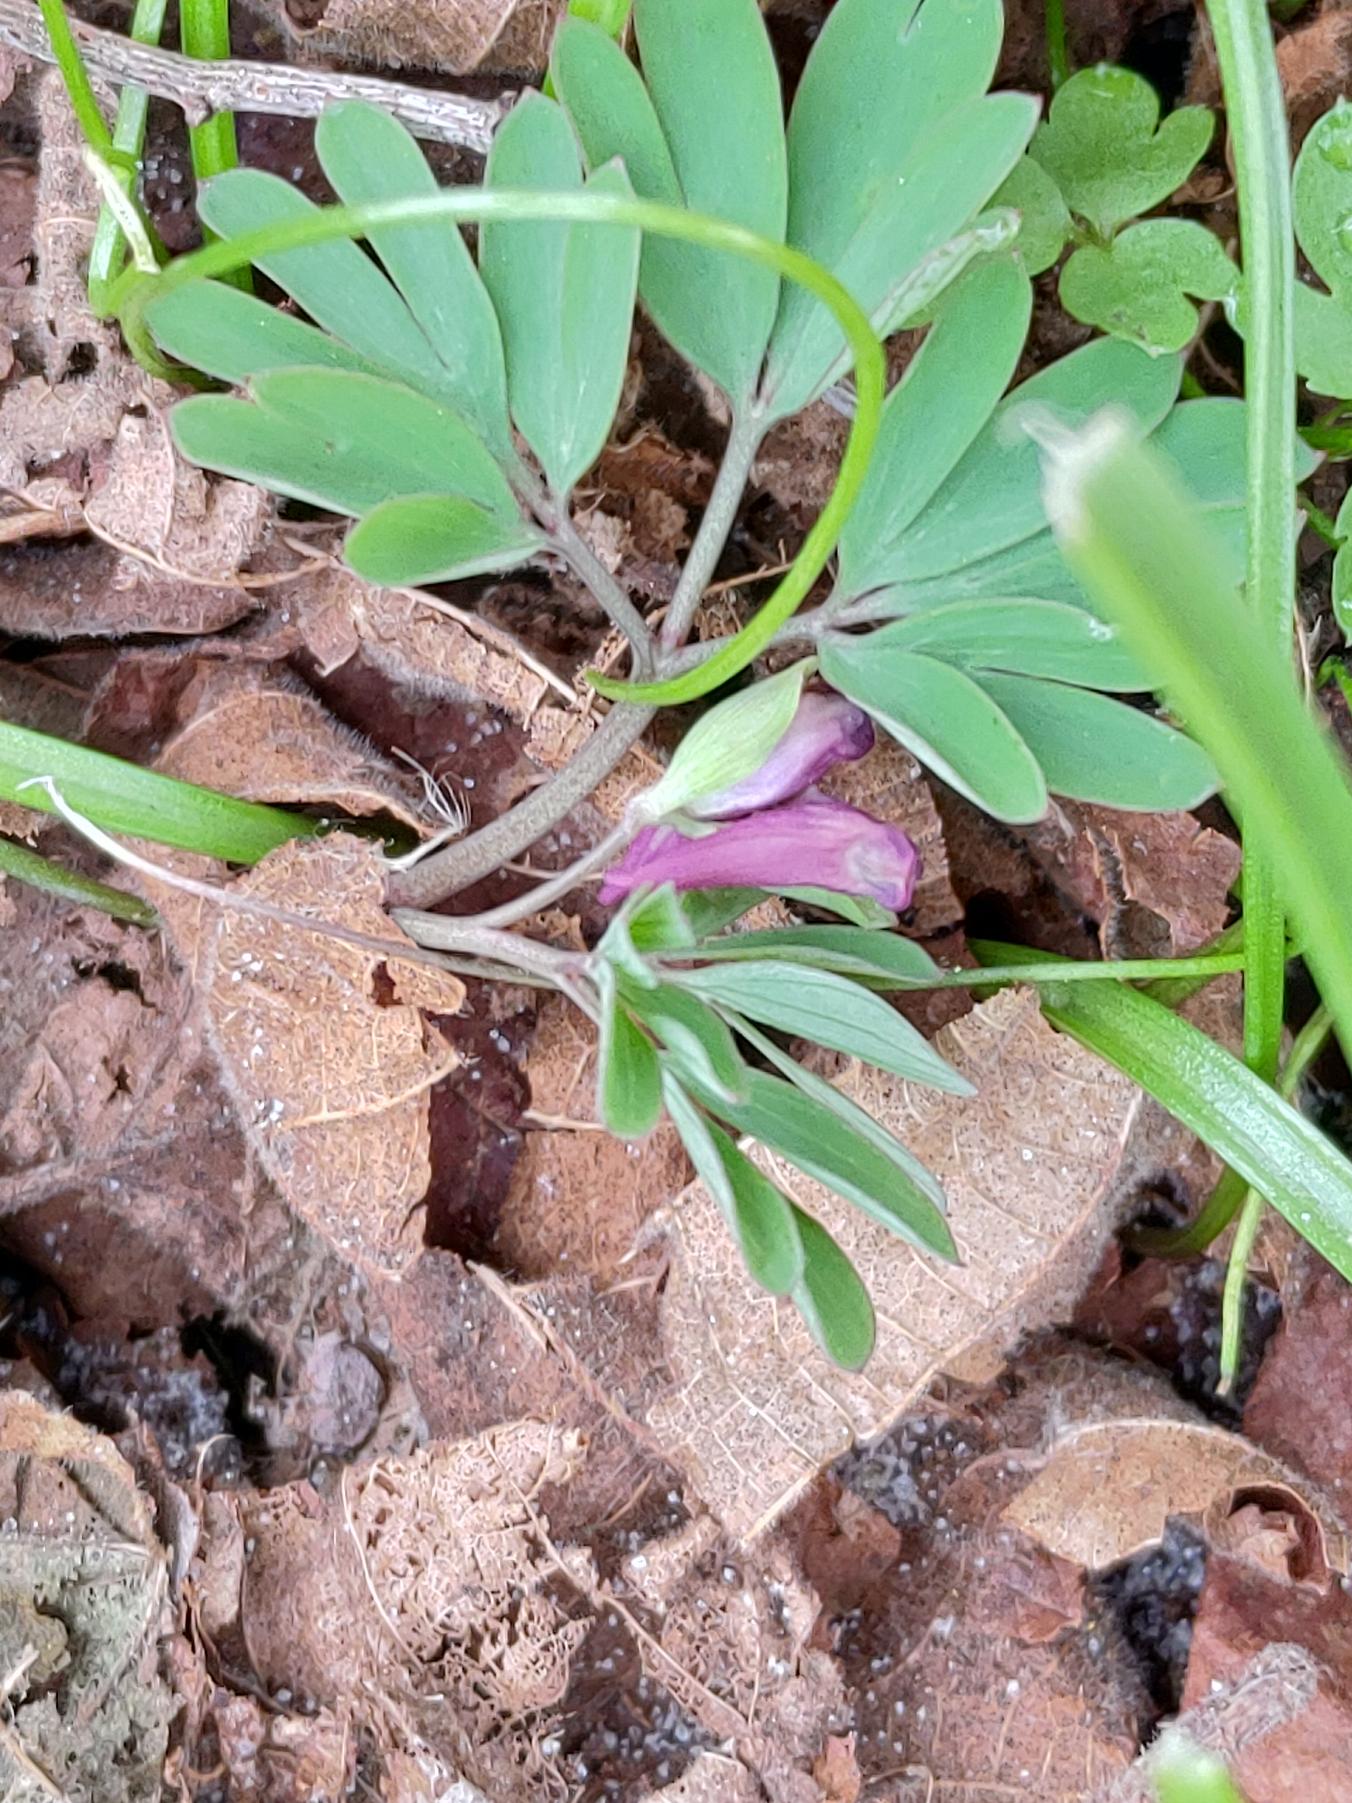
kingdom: Plantae
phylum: Tracheophyta
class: Magnoliopsida
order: Ranunculales
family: Papaveraceae
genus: Corydalis
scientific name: Corydalis intermedia
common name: Liden lærkespore
